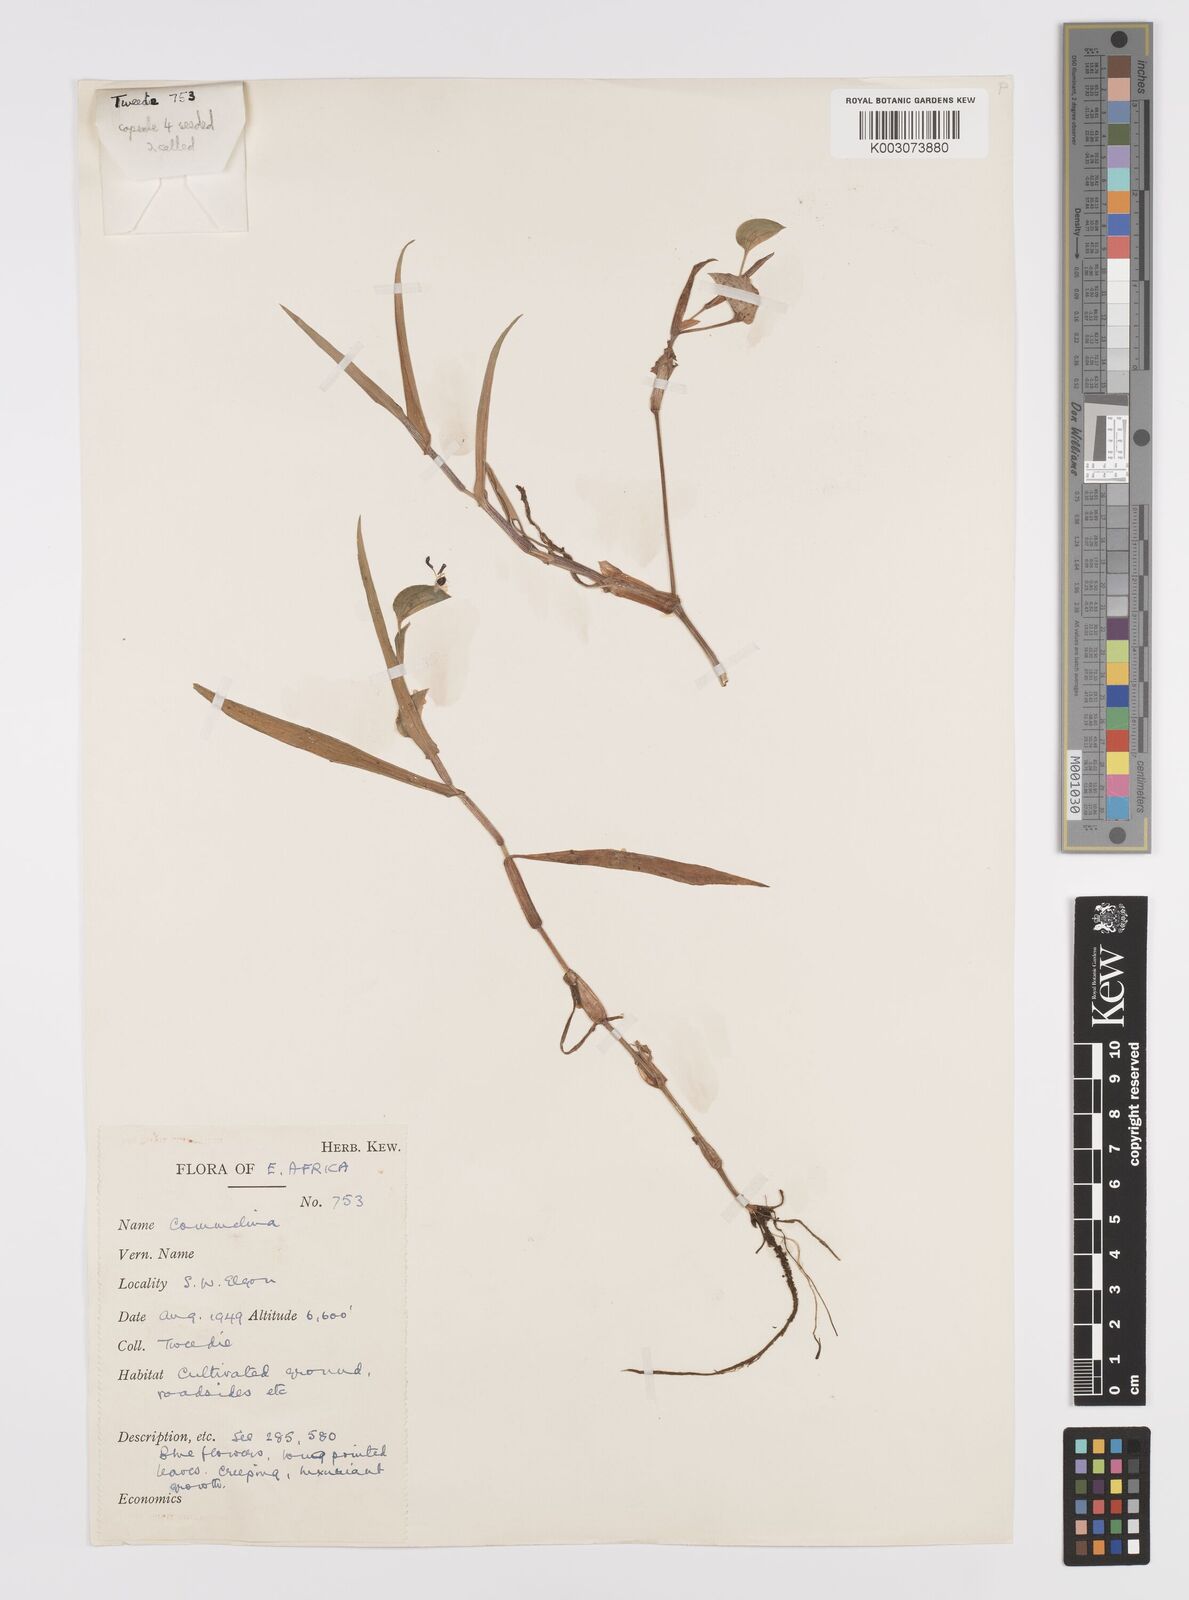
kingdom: Plantae
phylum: Tracheophyta
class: Liliopsida
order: Commelinales
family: Commelinaceae
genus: Commelina
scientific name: Commelina latifolia
